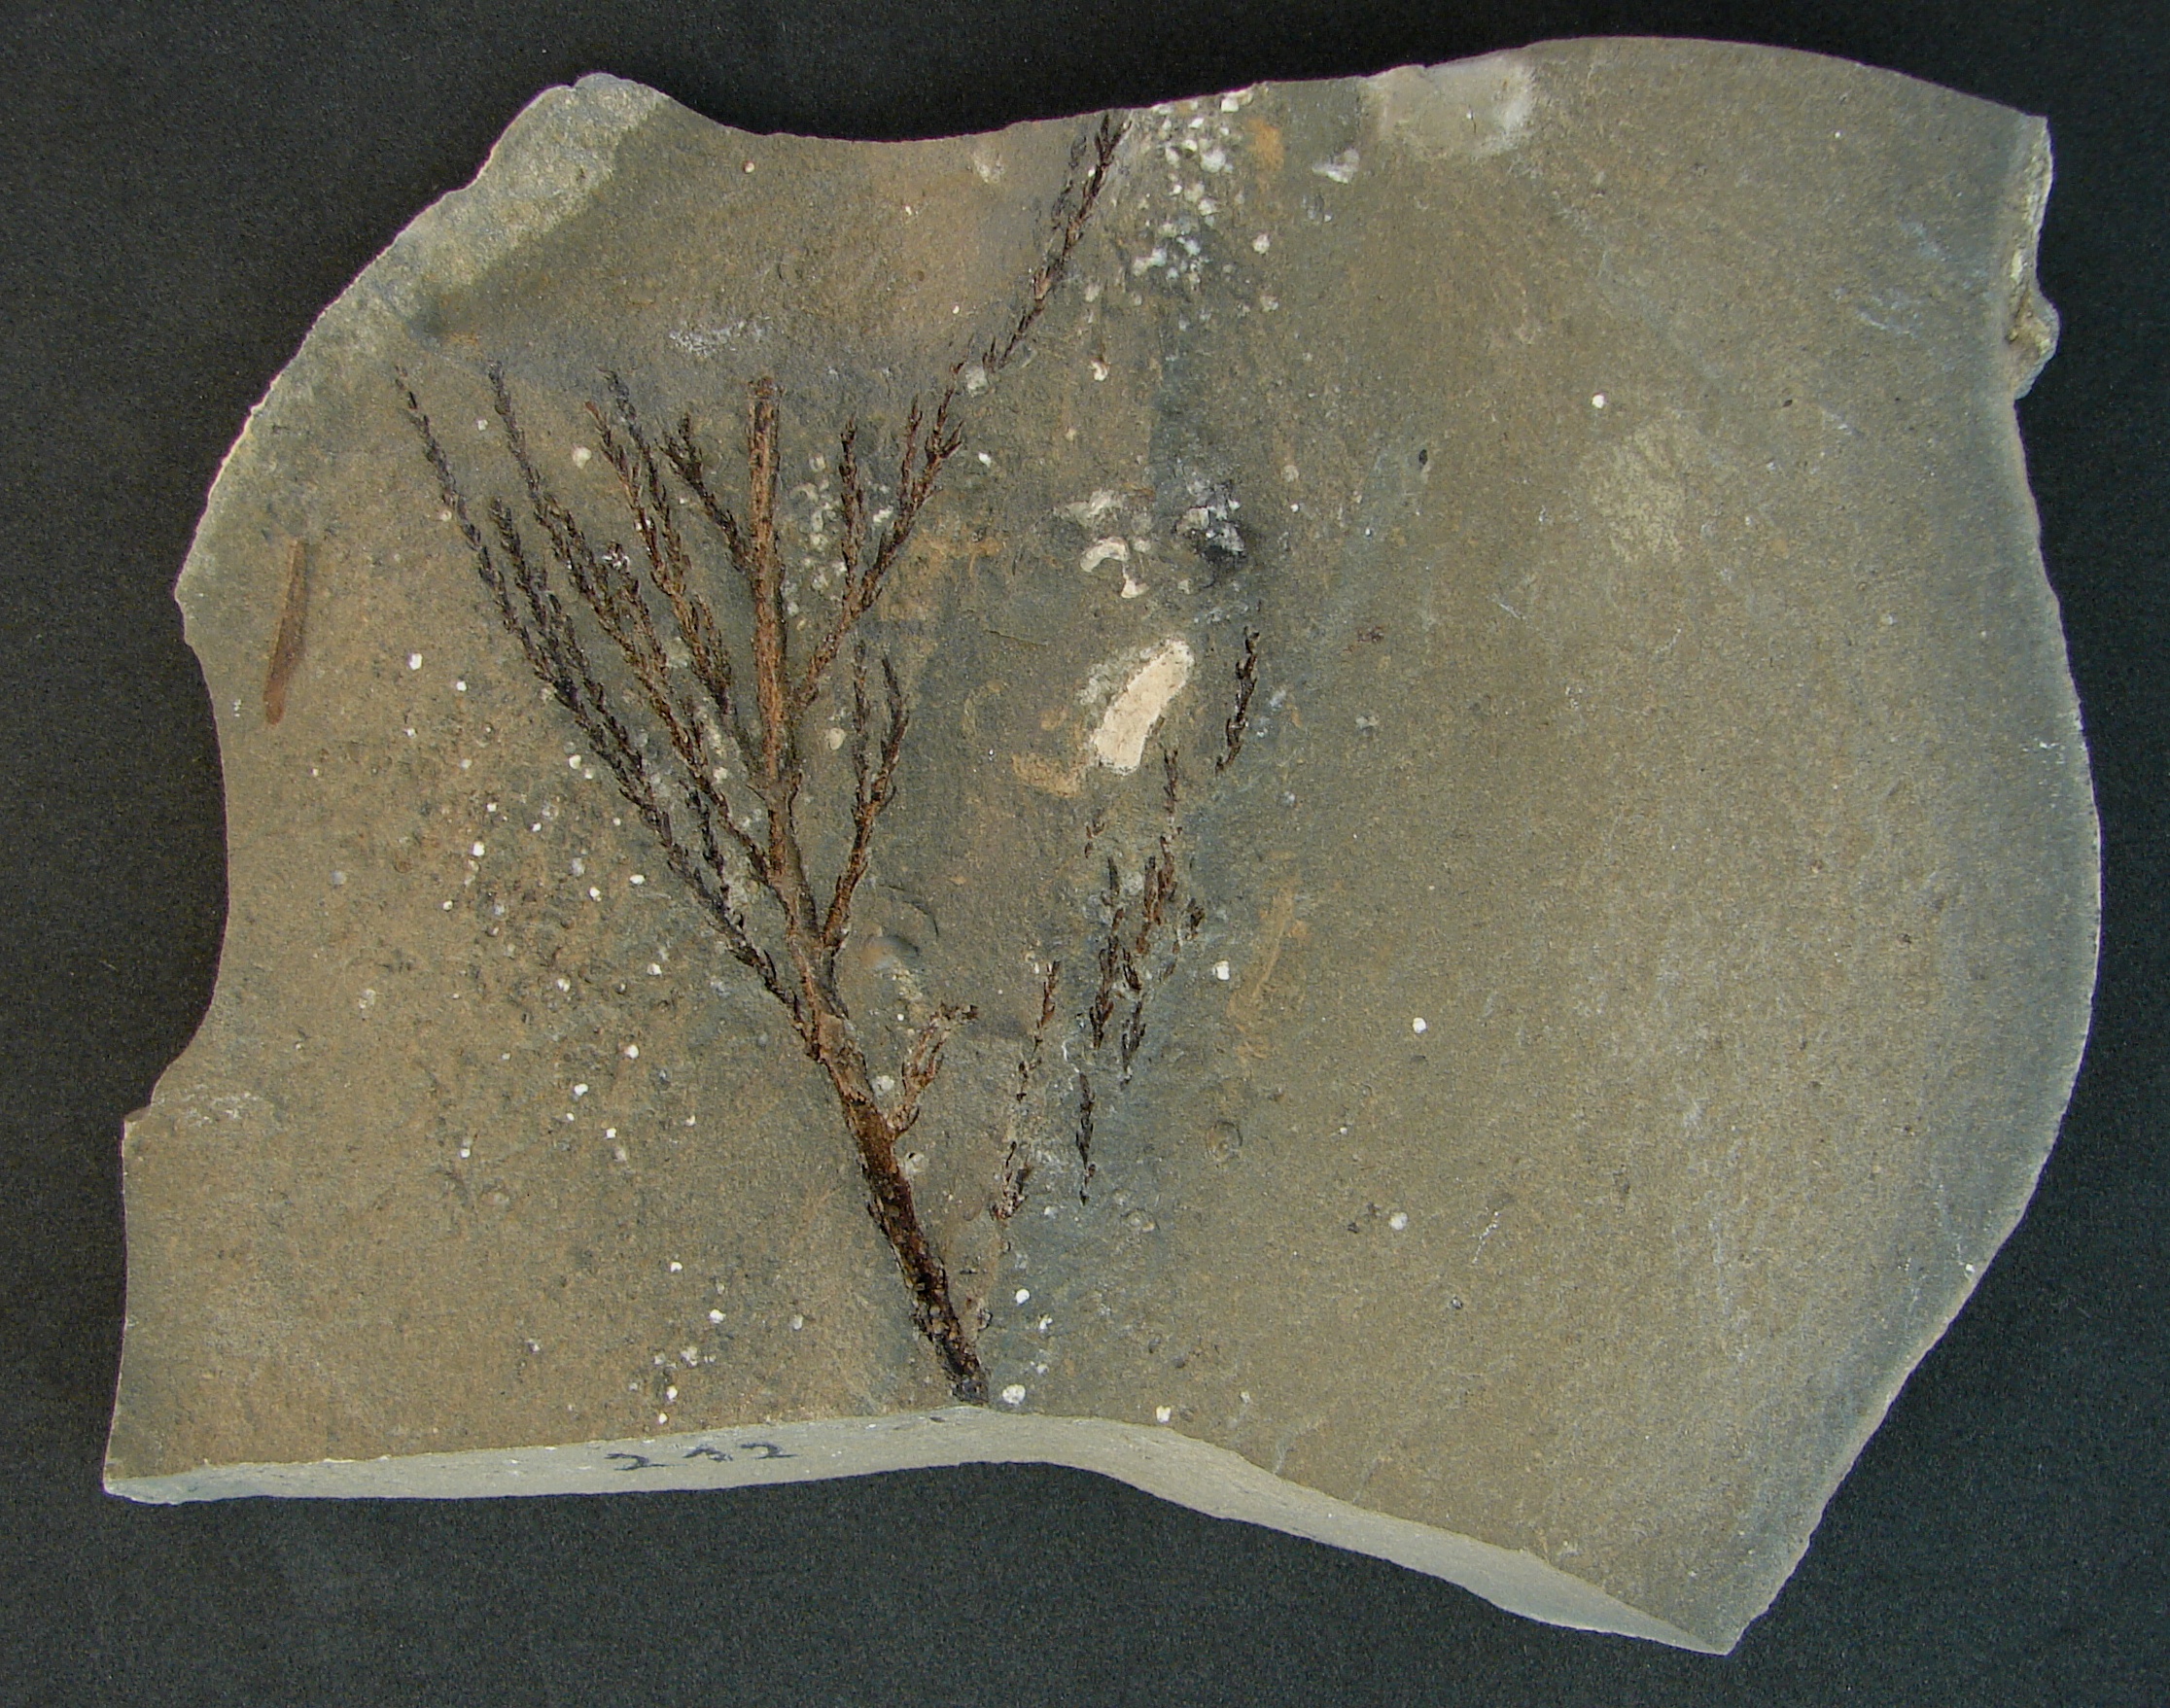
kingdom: Plantae
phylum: Tracheophyta
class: Pinopsida
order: Pinales
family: Cupressaceae
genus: Widdringtonites
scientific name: Widdringtonites
